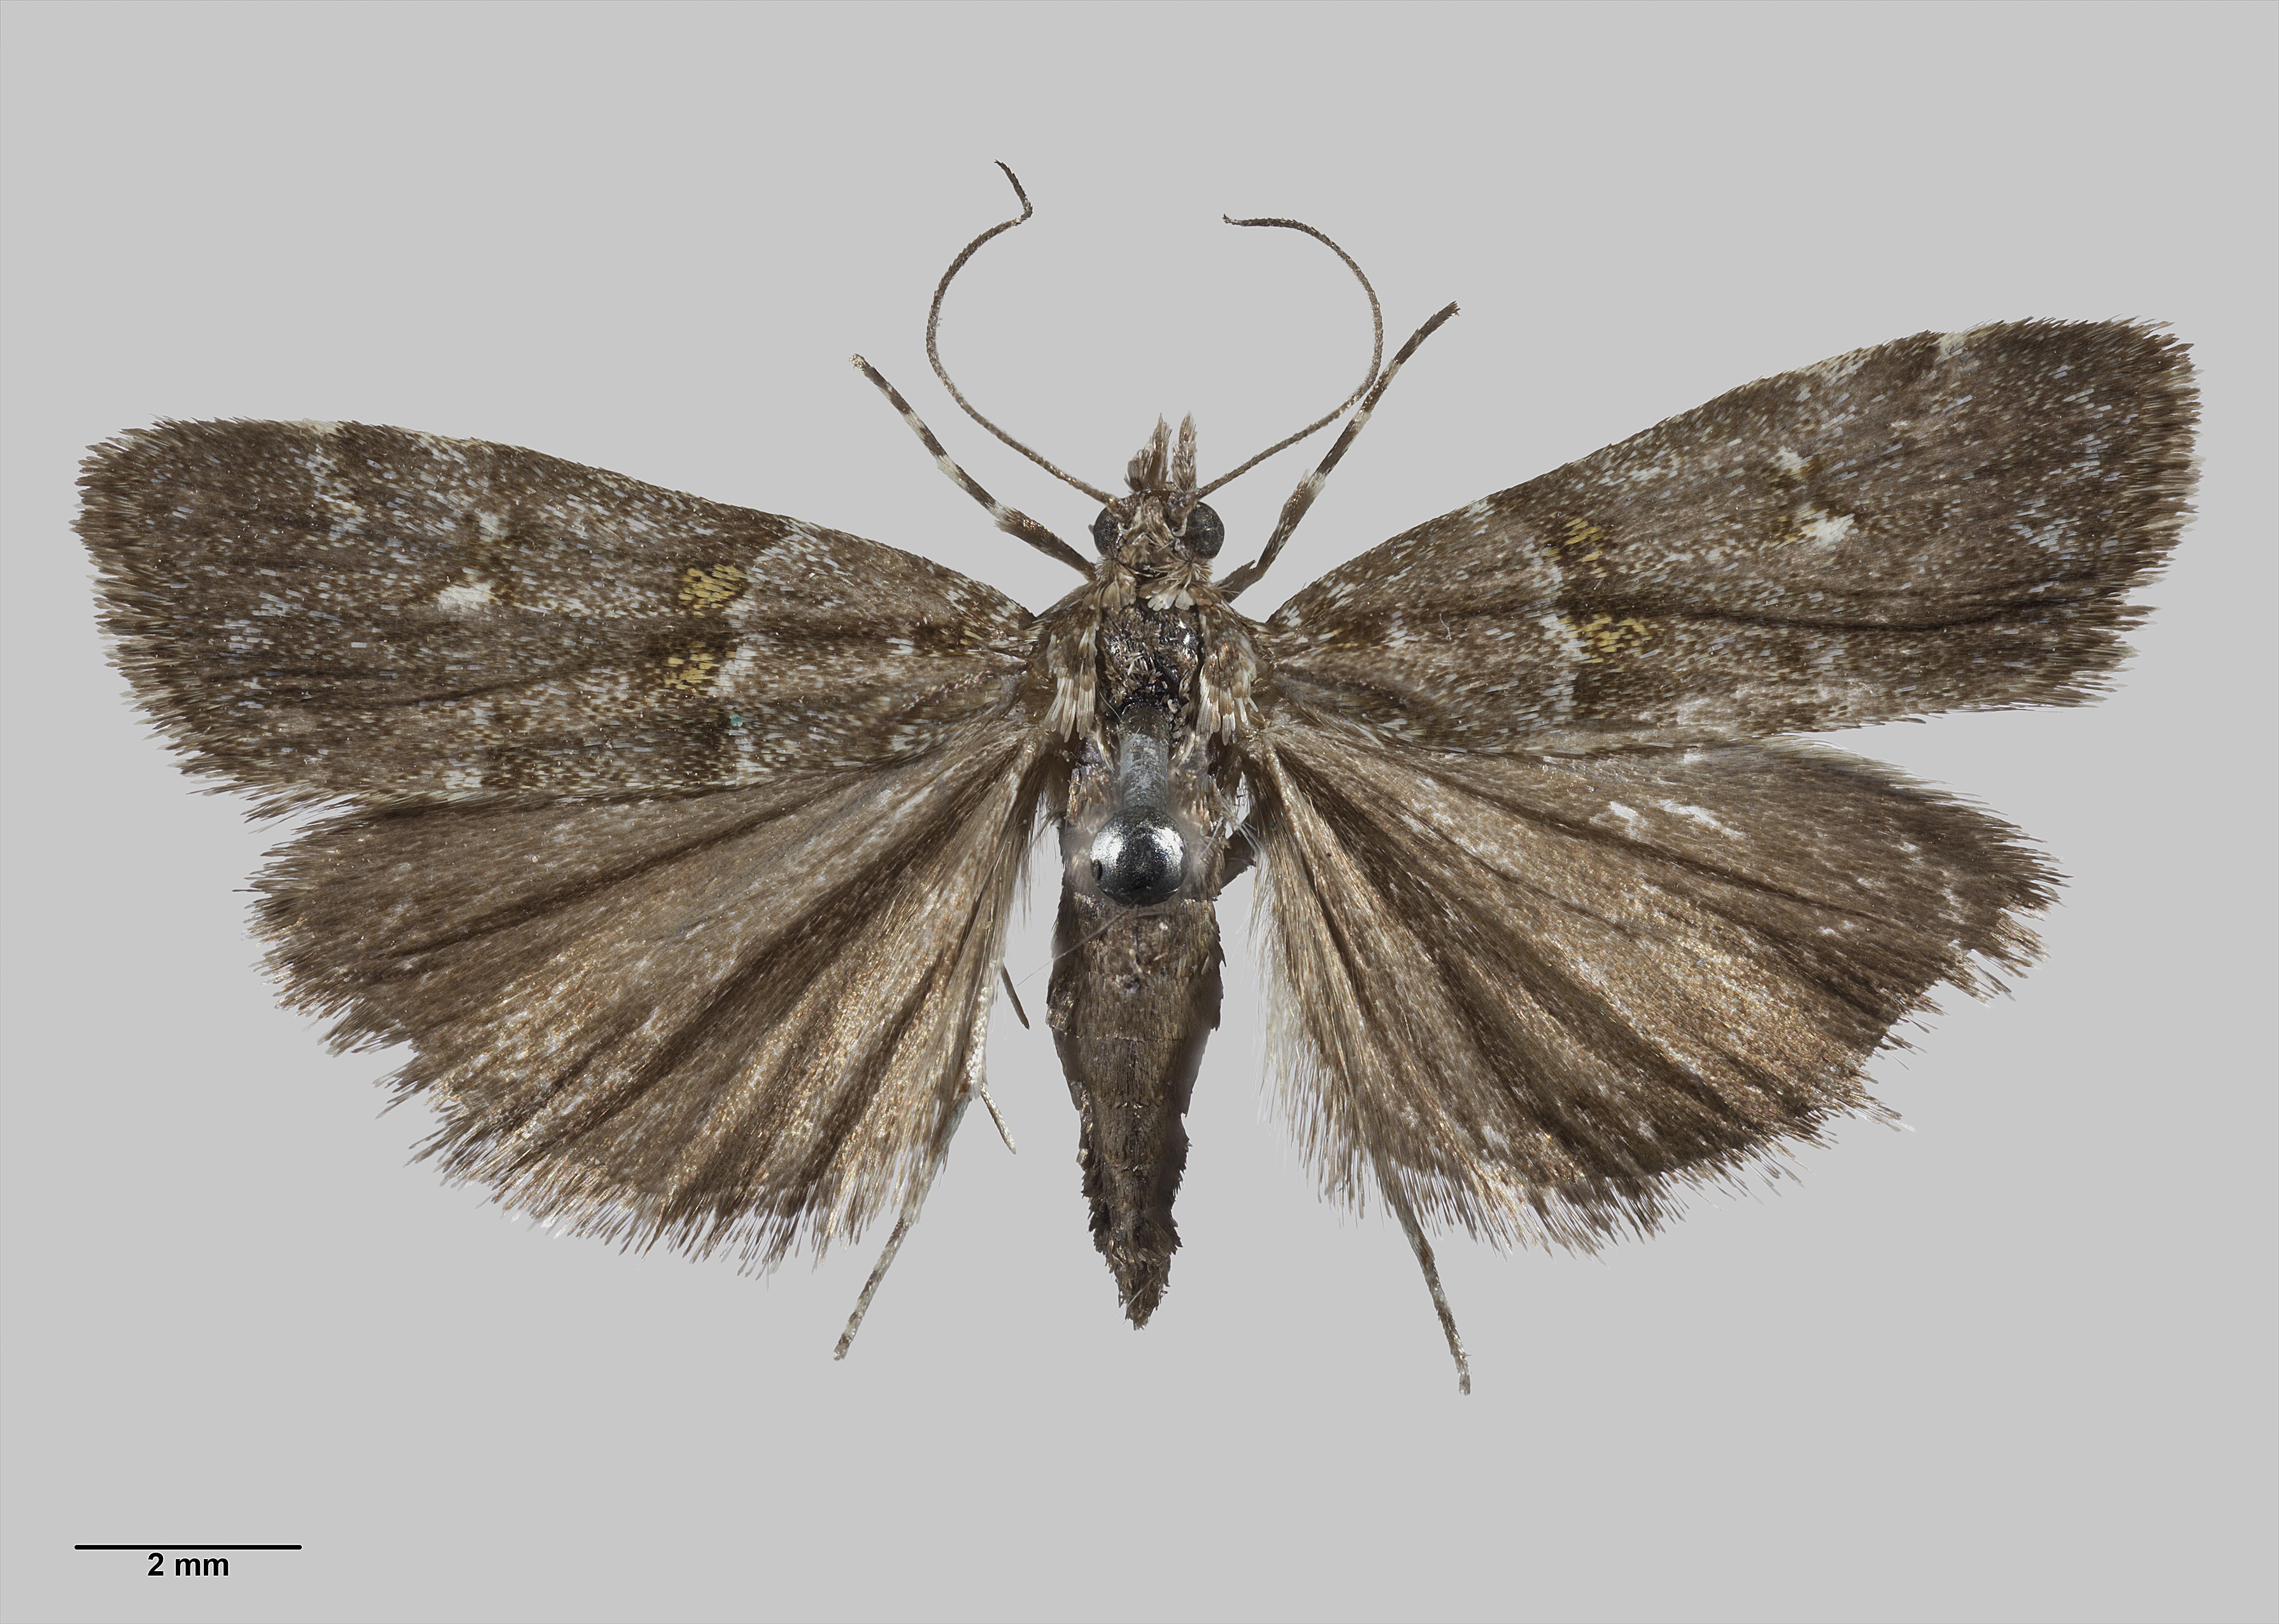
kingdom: Animalia
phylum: Arthropoda
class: Insecta
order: Lepidoptera
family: Crambidae
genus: Scoparia
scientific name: Scoparia sylvestris
